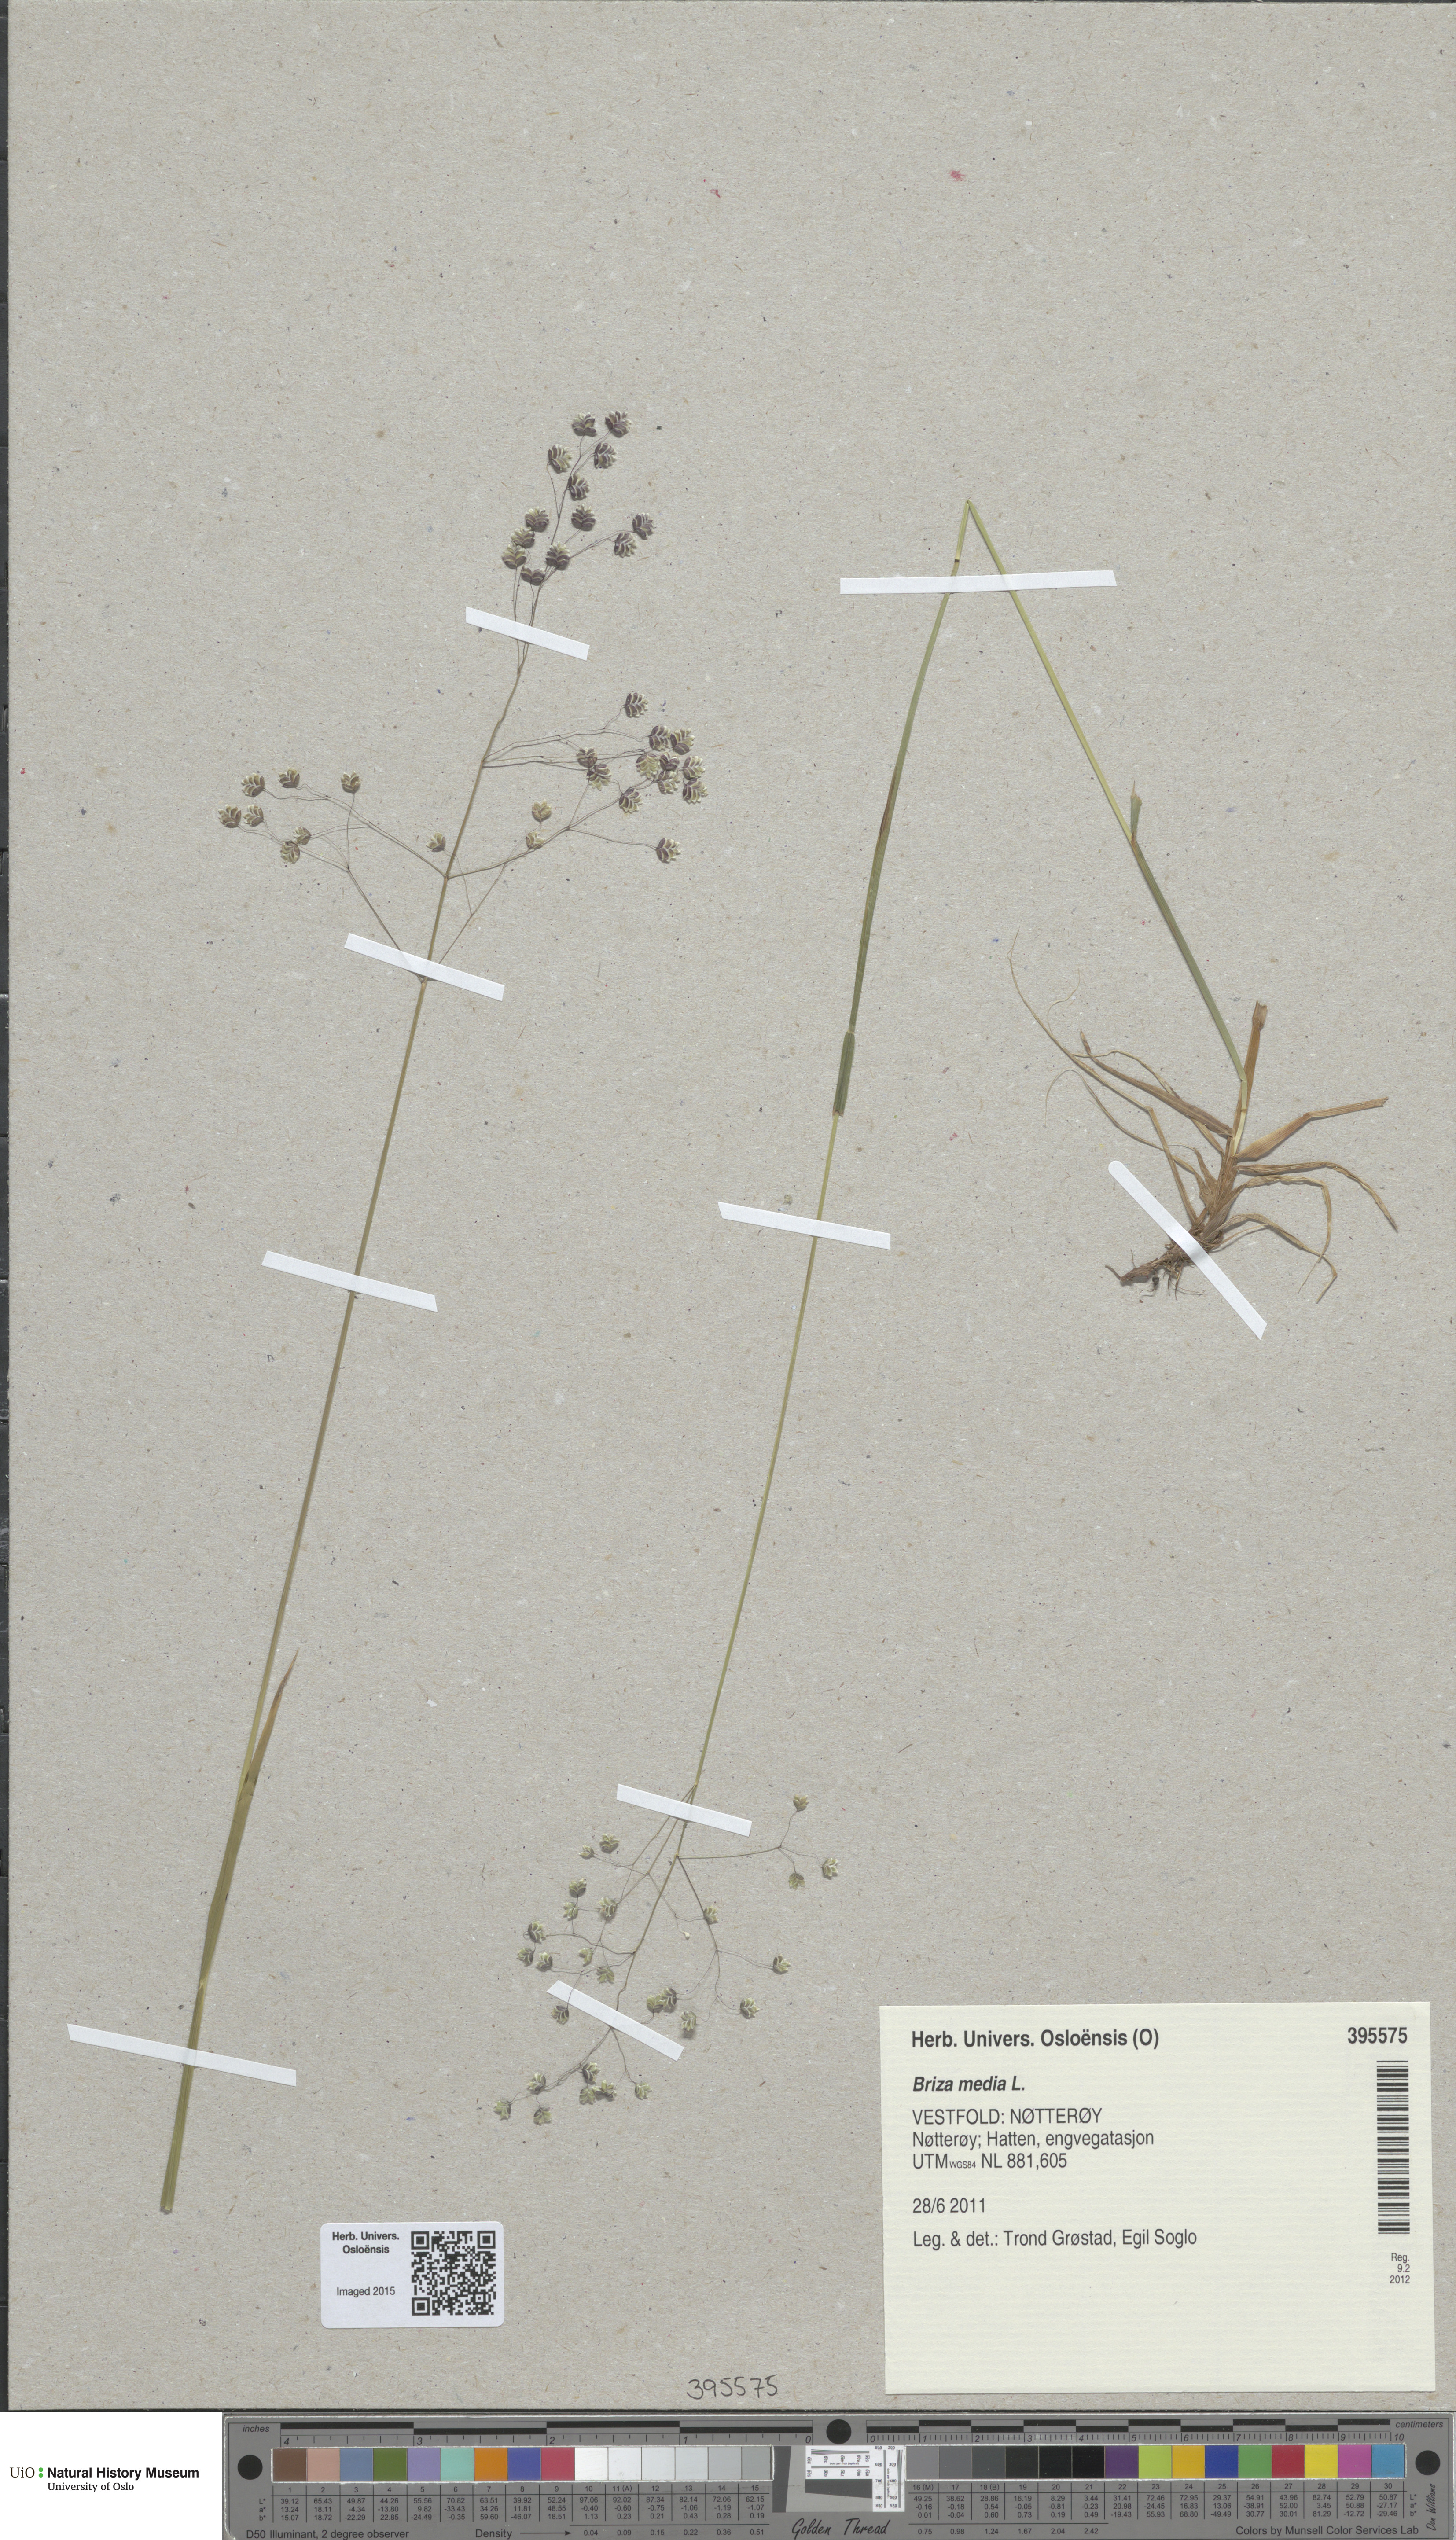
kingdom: Plantae
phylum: Tracheophyta
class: Liliopsida
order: Poales
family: Poaceae
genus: Briza
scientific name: Briza media
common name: Quaking grass
